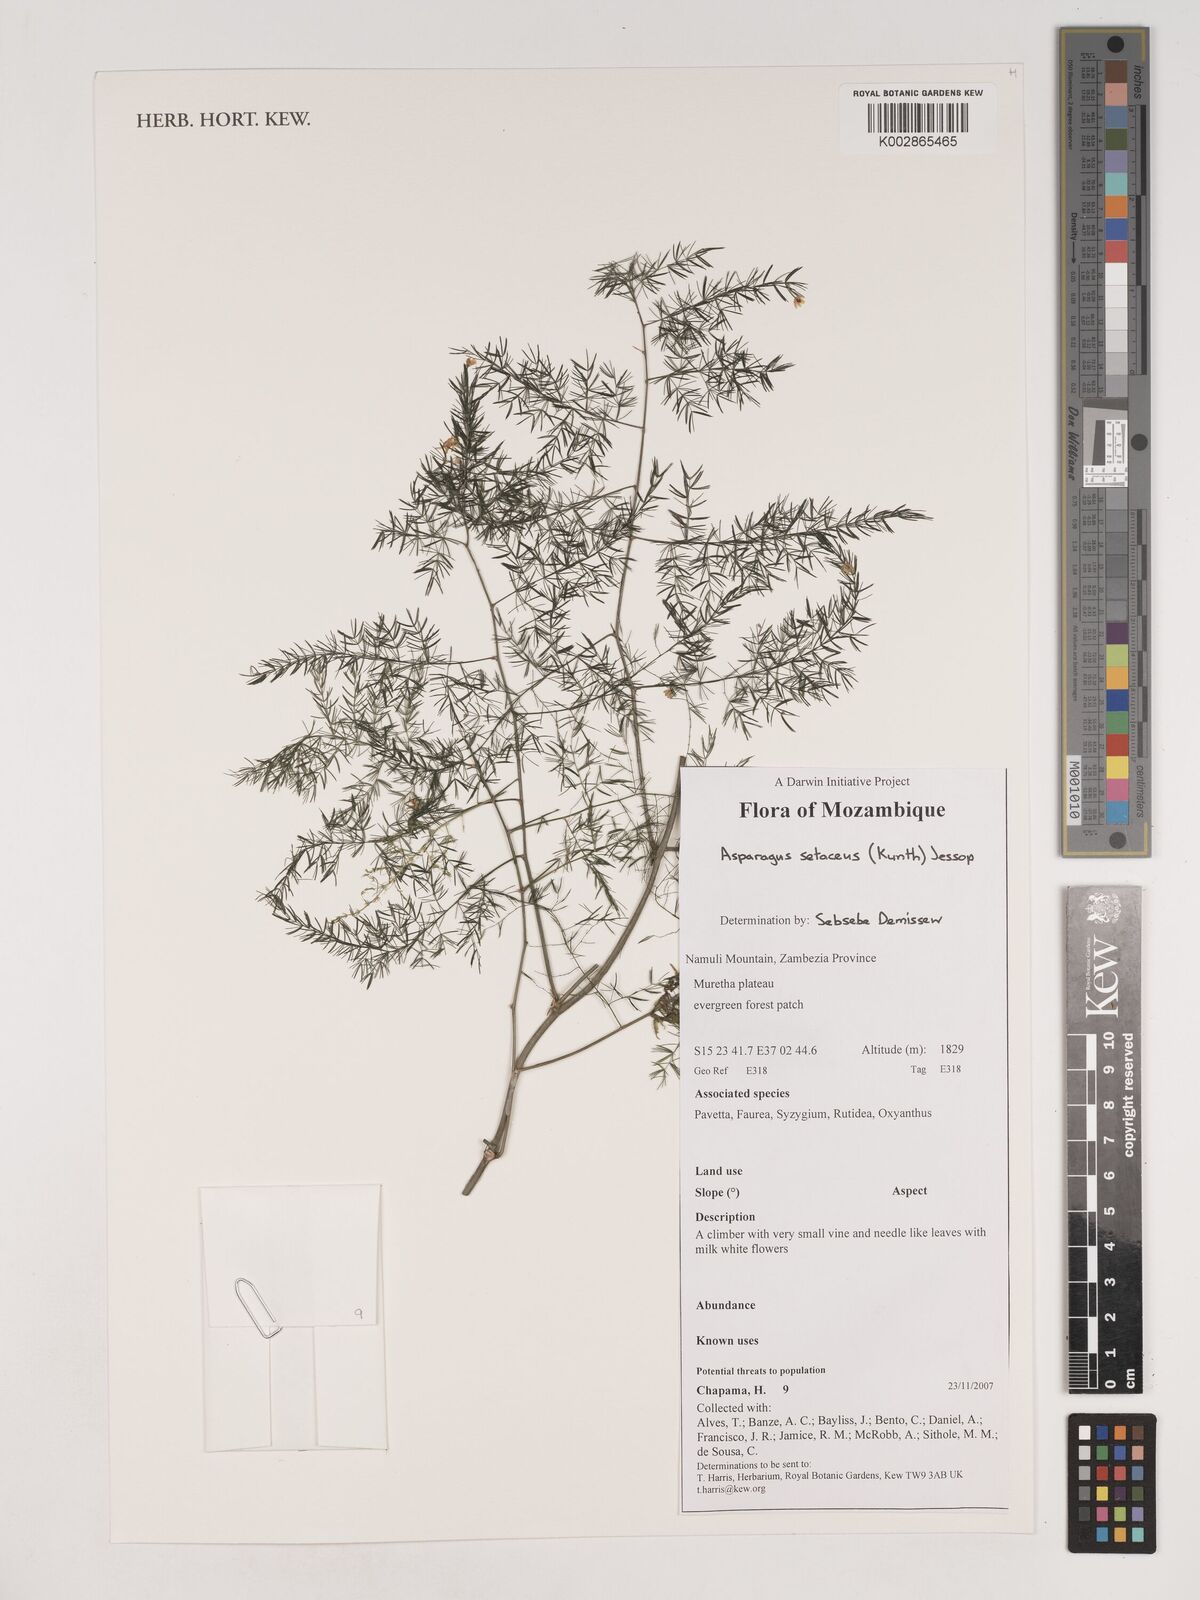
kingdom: Plantae
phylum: Tracheophyta
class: Liliopsida
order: Asparagales
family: Asparagaceae
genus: Asparagus
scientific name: Asparagus setaceus
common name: Common asparagus fern
